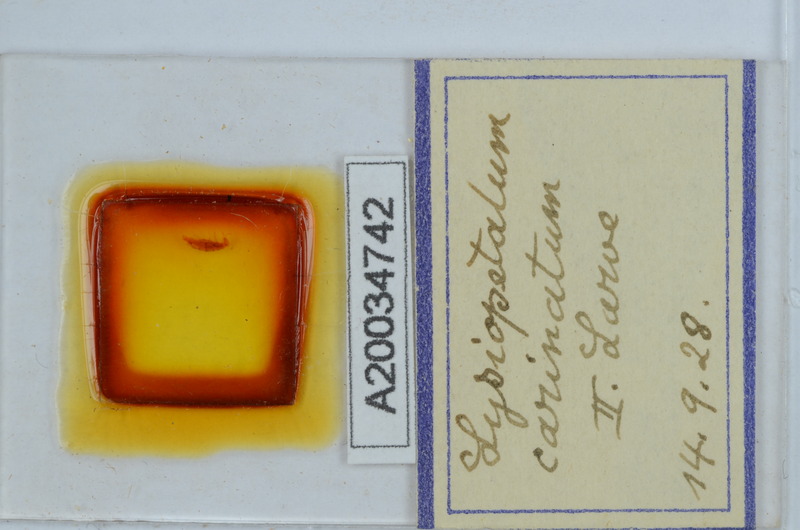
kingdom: Animalia
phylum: Arthropoda
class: Diplopoda
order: Callipodida
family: Schizopetalidae
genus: Acanthopetalum
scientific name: Acanthopetalum carinatum
